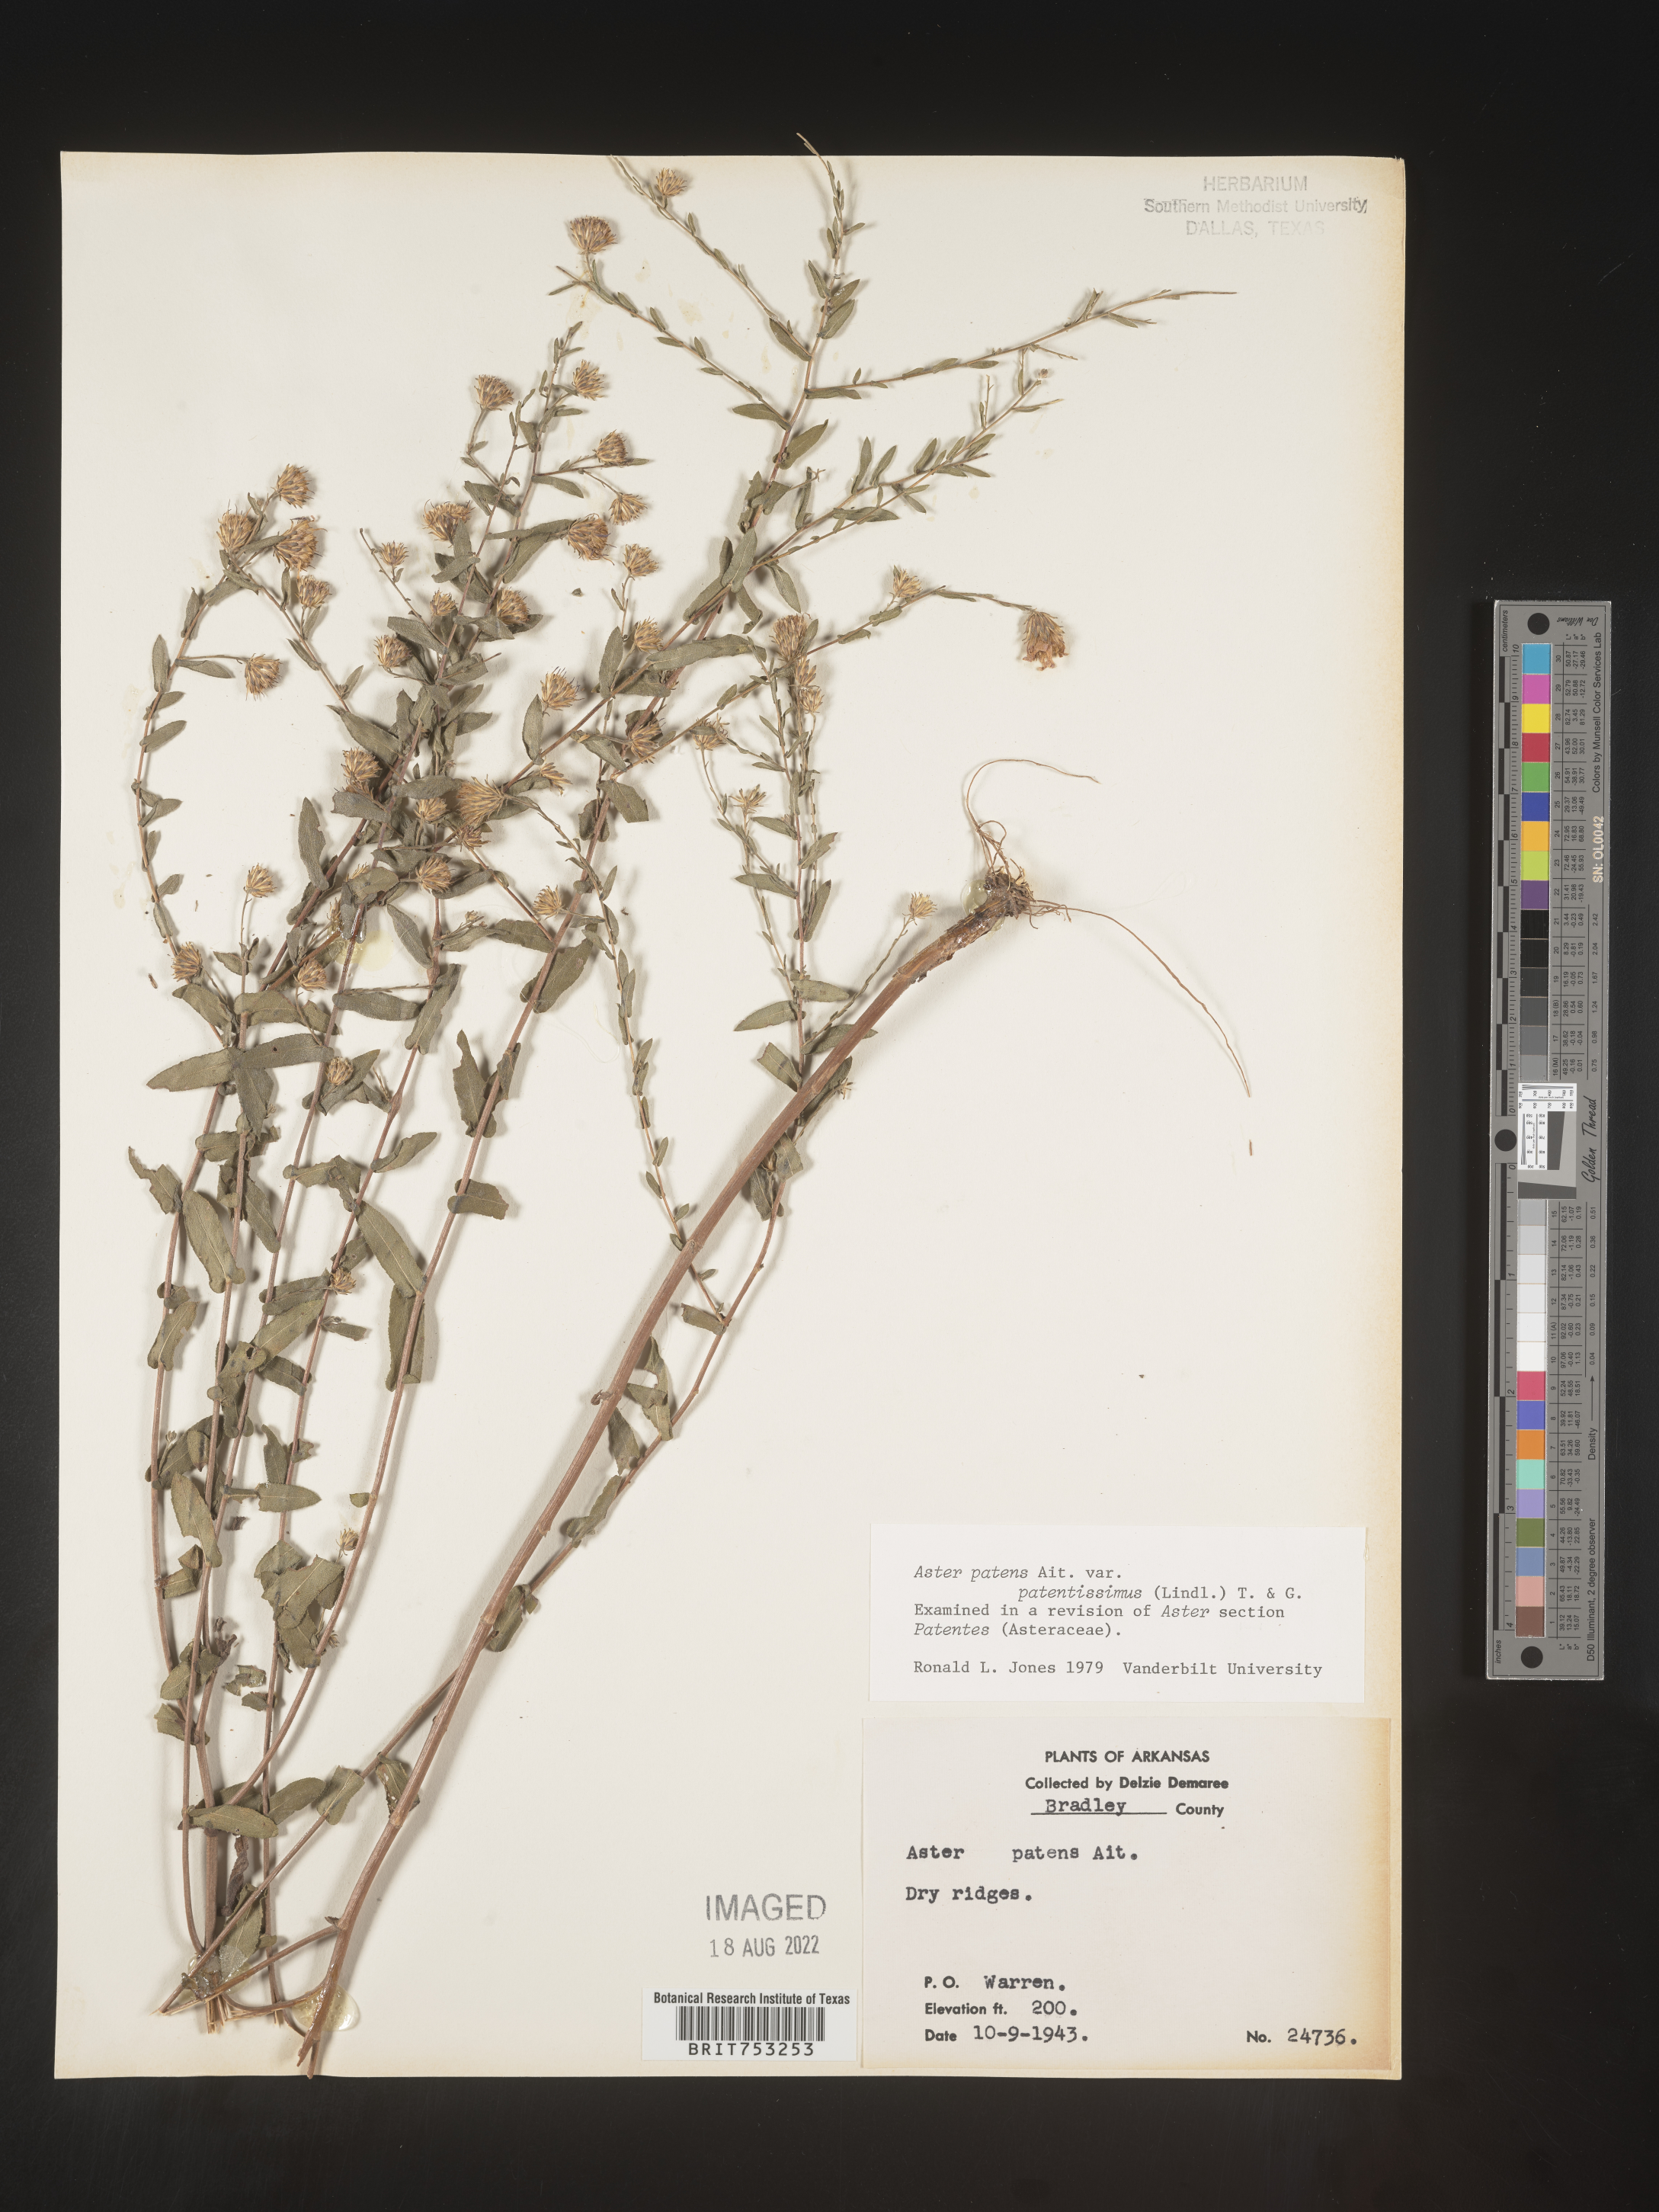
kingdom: Plantae
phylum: Tracheophyta
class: Magnoliopsida
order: Asterales
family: Asteraceae
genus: Symphyotrichum
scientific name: Symphyotrichum patens
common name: Late purple aster
